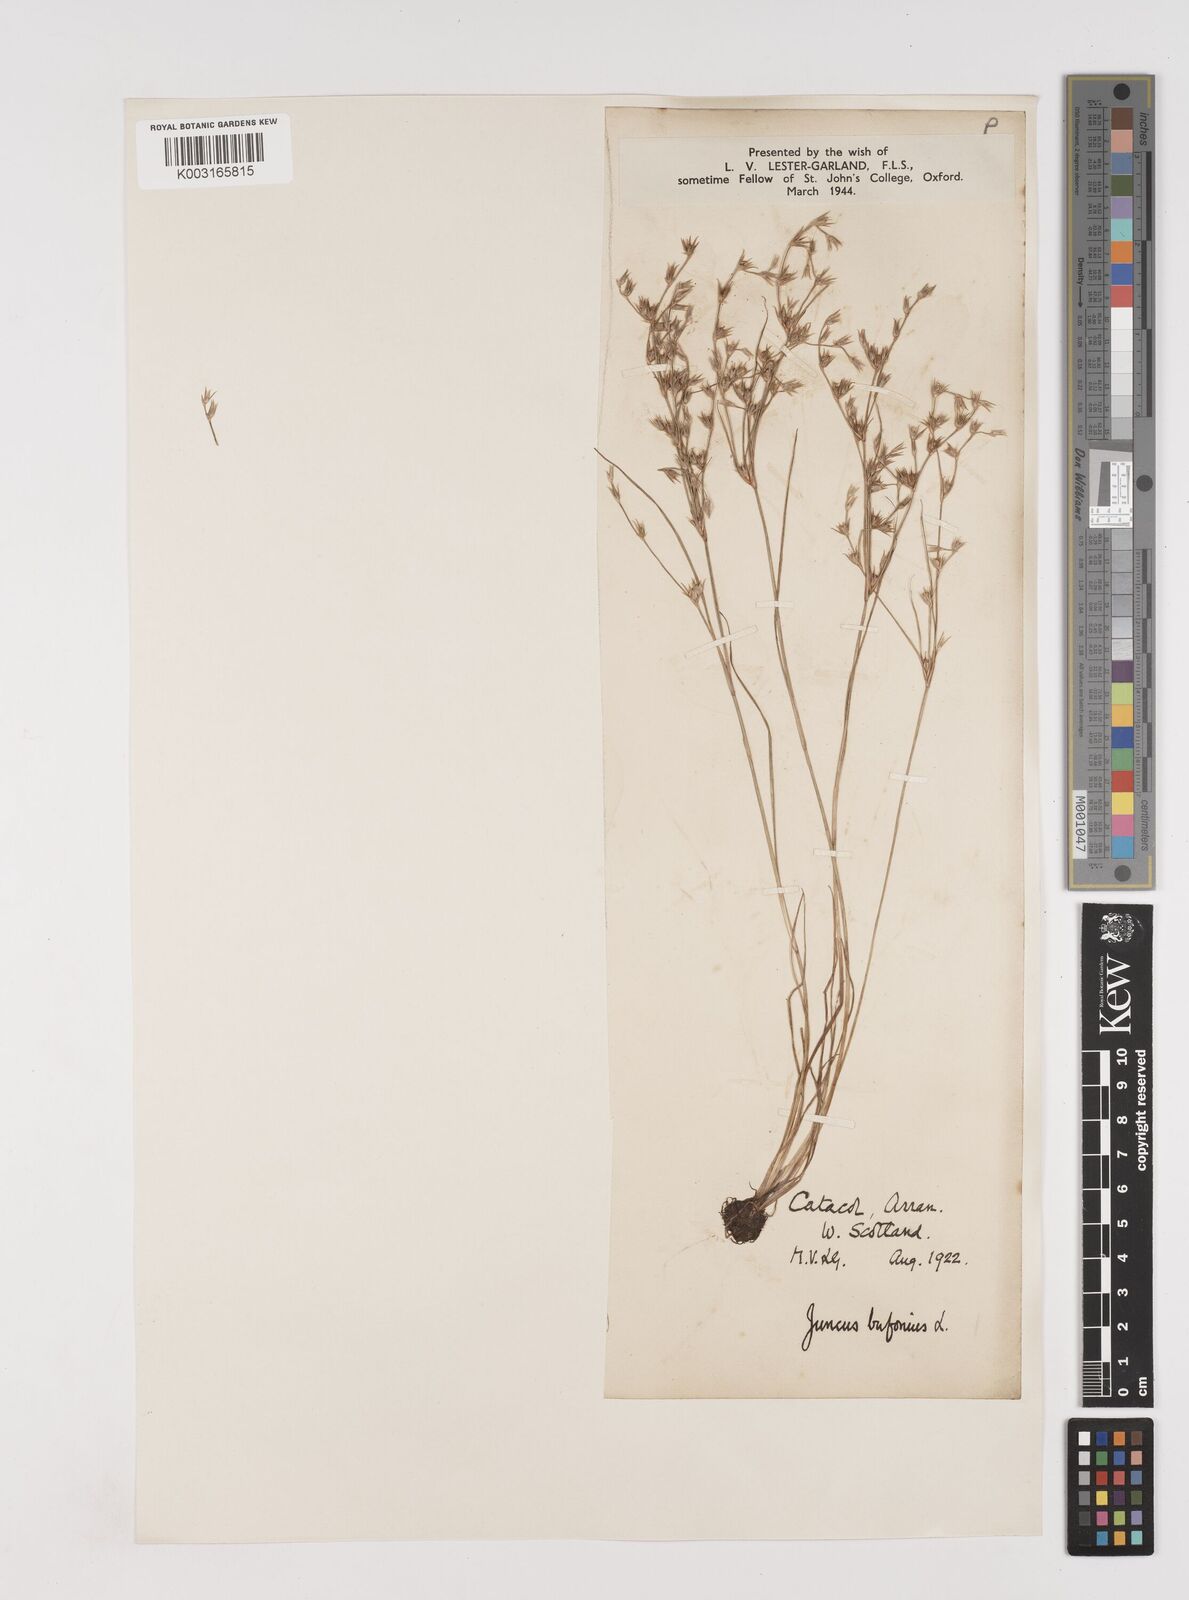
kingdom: Plantae
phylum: Tracheophyta
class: Liliopsida
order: Poales
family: Juncaceae
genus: Juncus
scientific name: Juncus bufonius
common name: Toad rush
